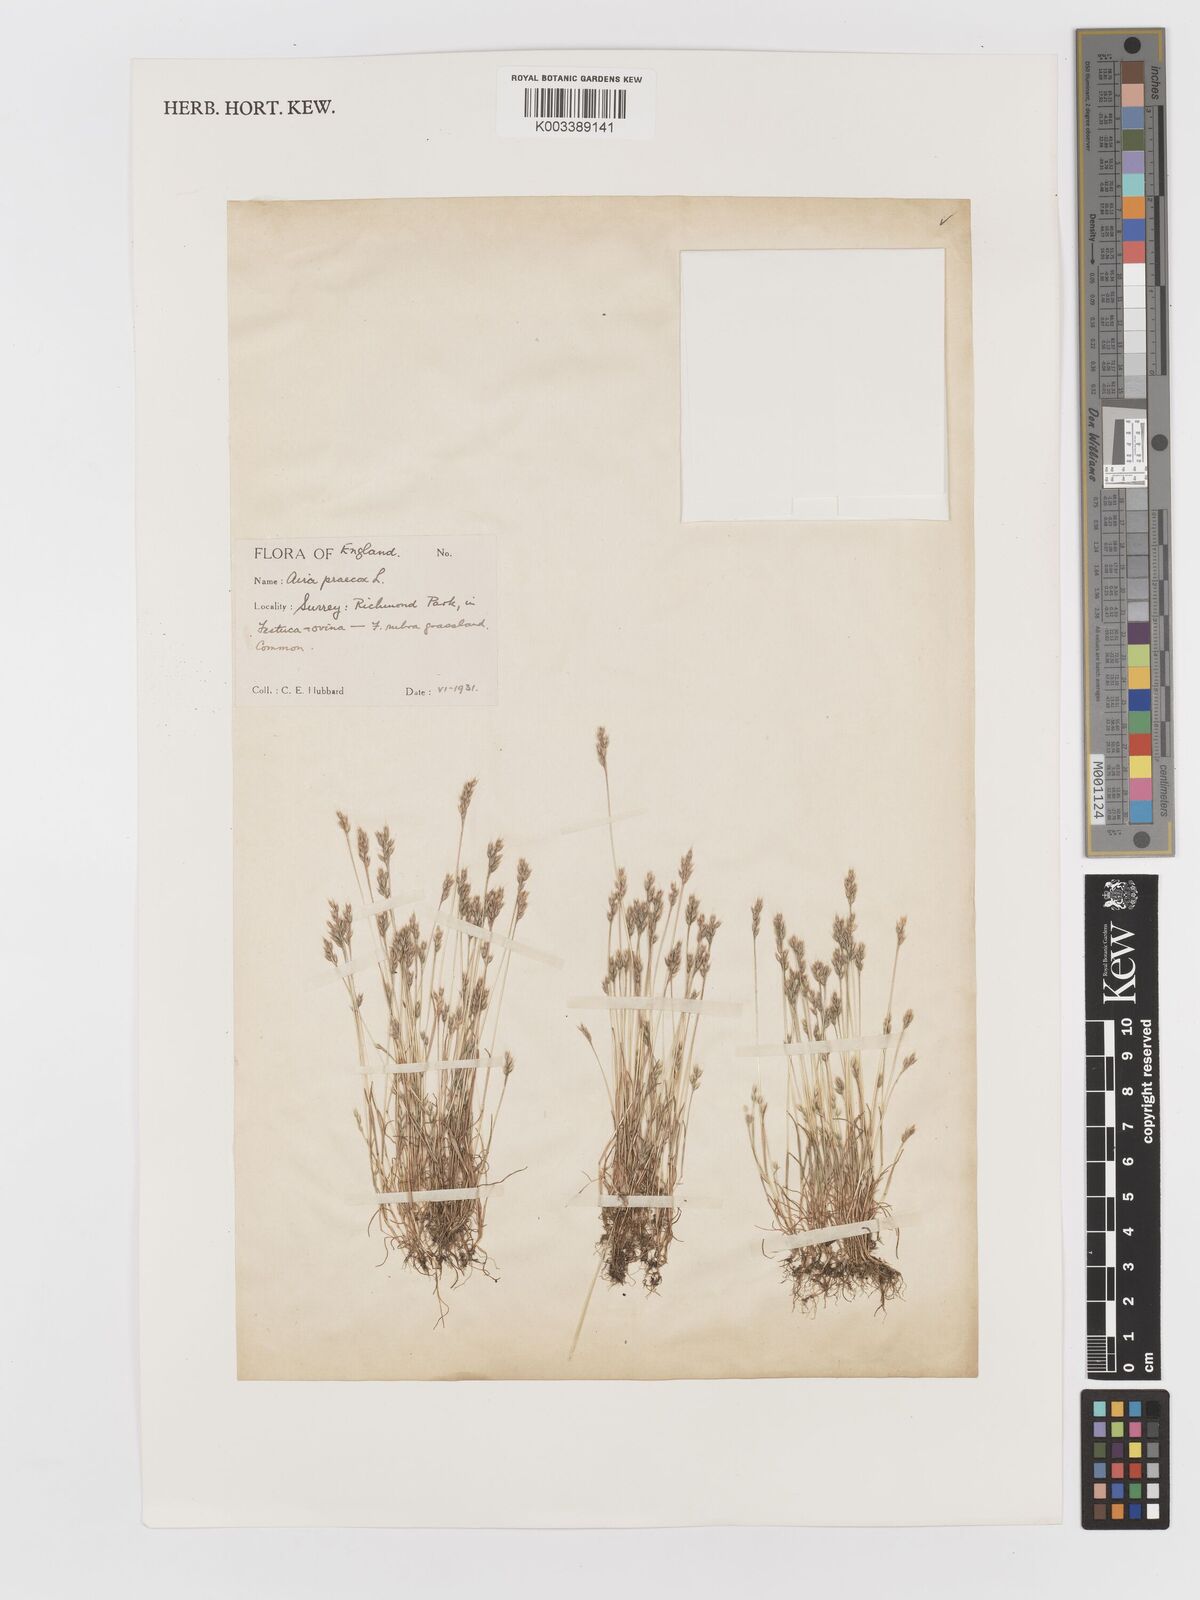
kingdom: Plantae
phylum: Tracheophyta
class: Liliopsida
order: Poales
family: Poaceae
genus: Aira
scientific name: Aira praecox
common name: Early hair-grass
